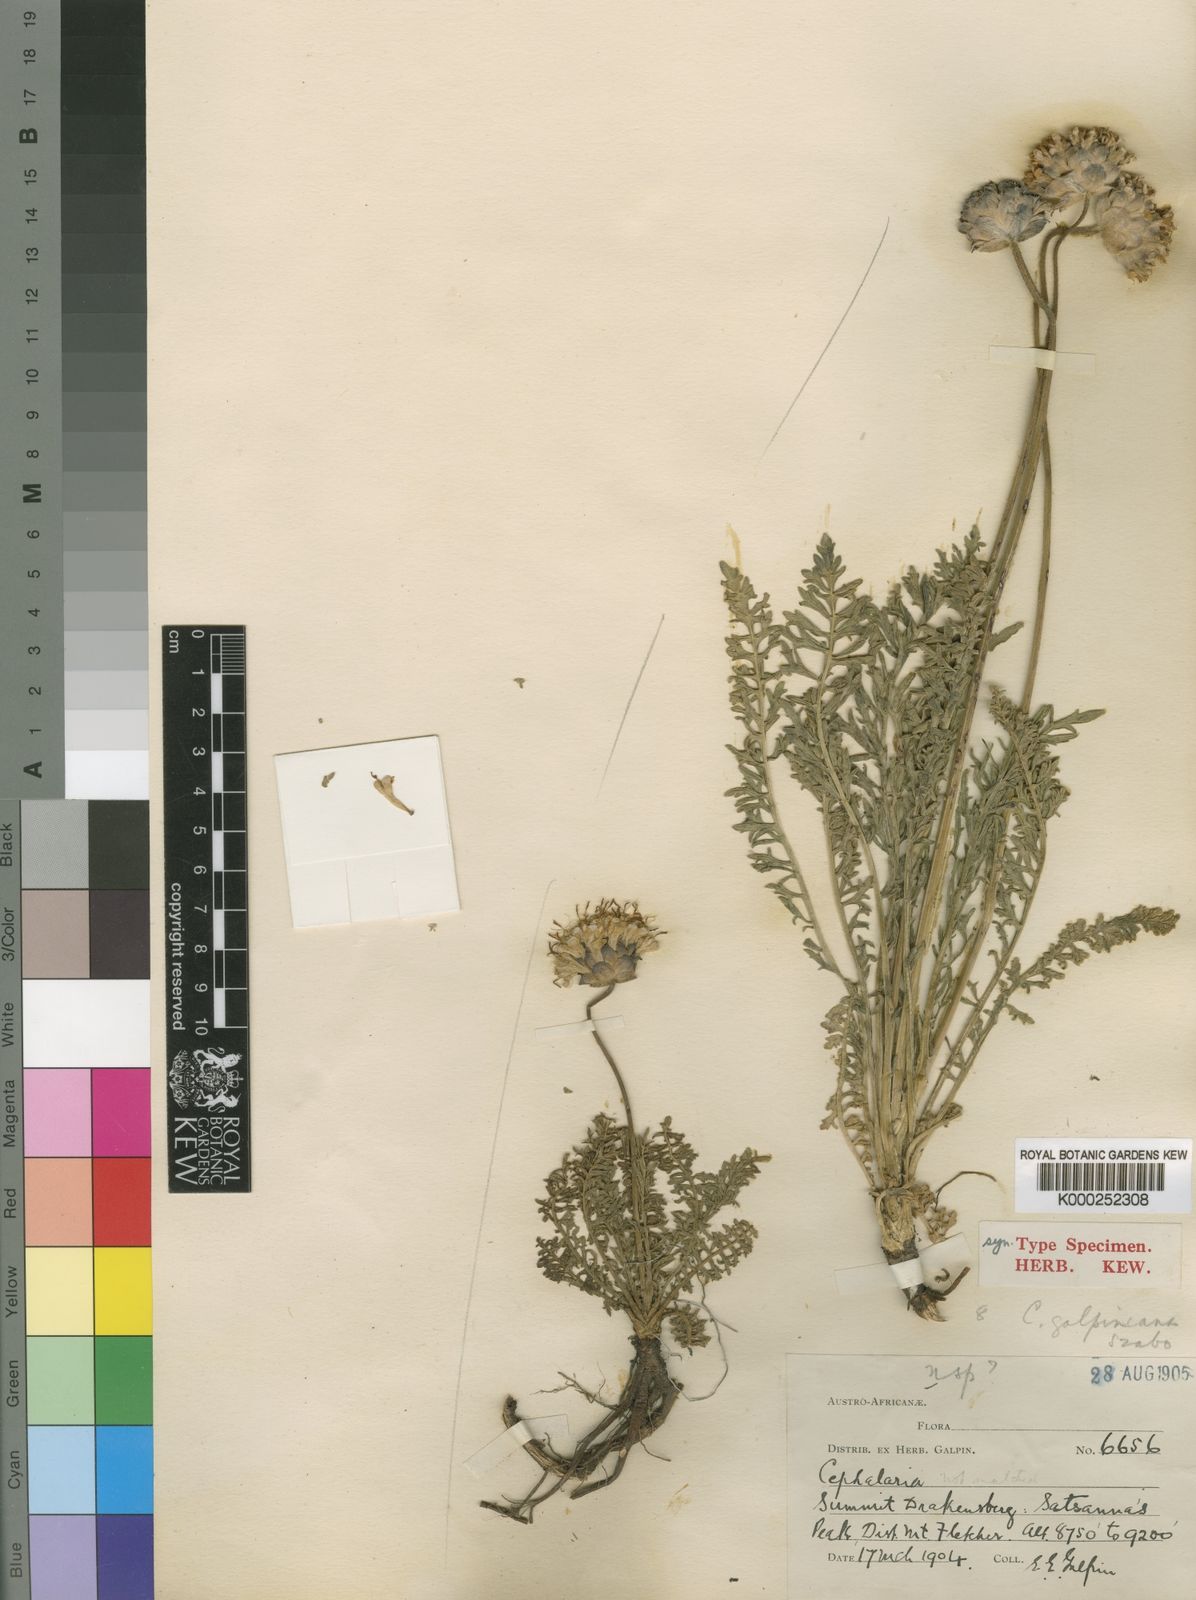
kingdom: Plantae
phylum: Tracheophyta
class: Magnoliopsida
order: Dipsacales
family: Caprifoliaceae
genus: Cephalaria
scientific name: Cephalaria galpiniana
